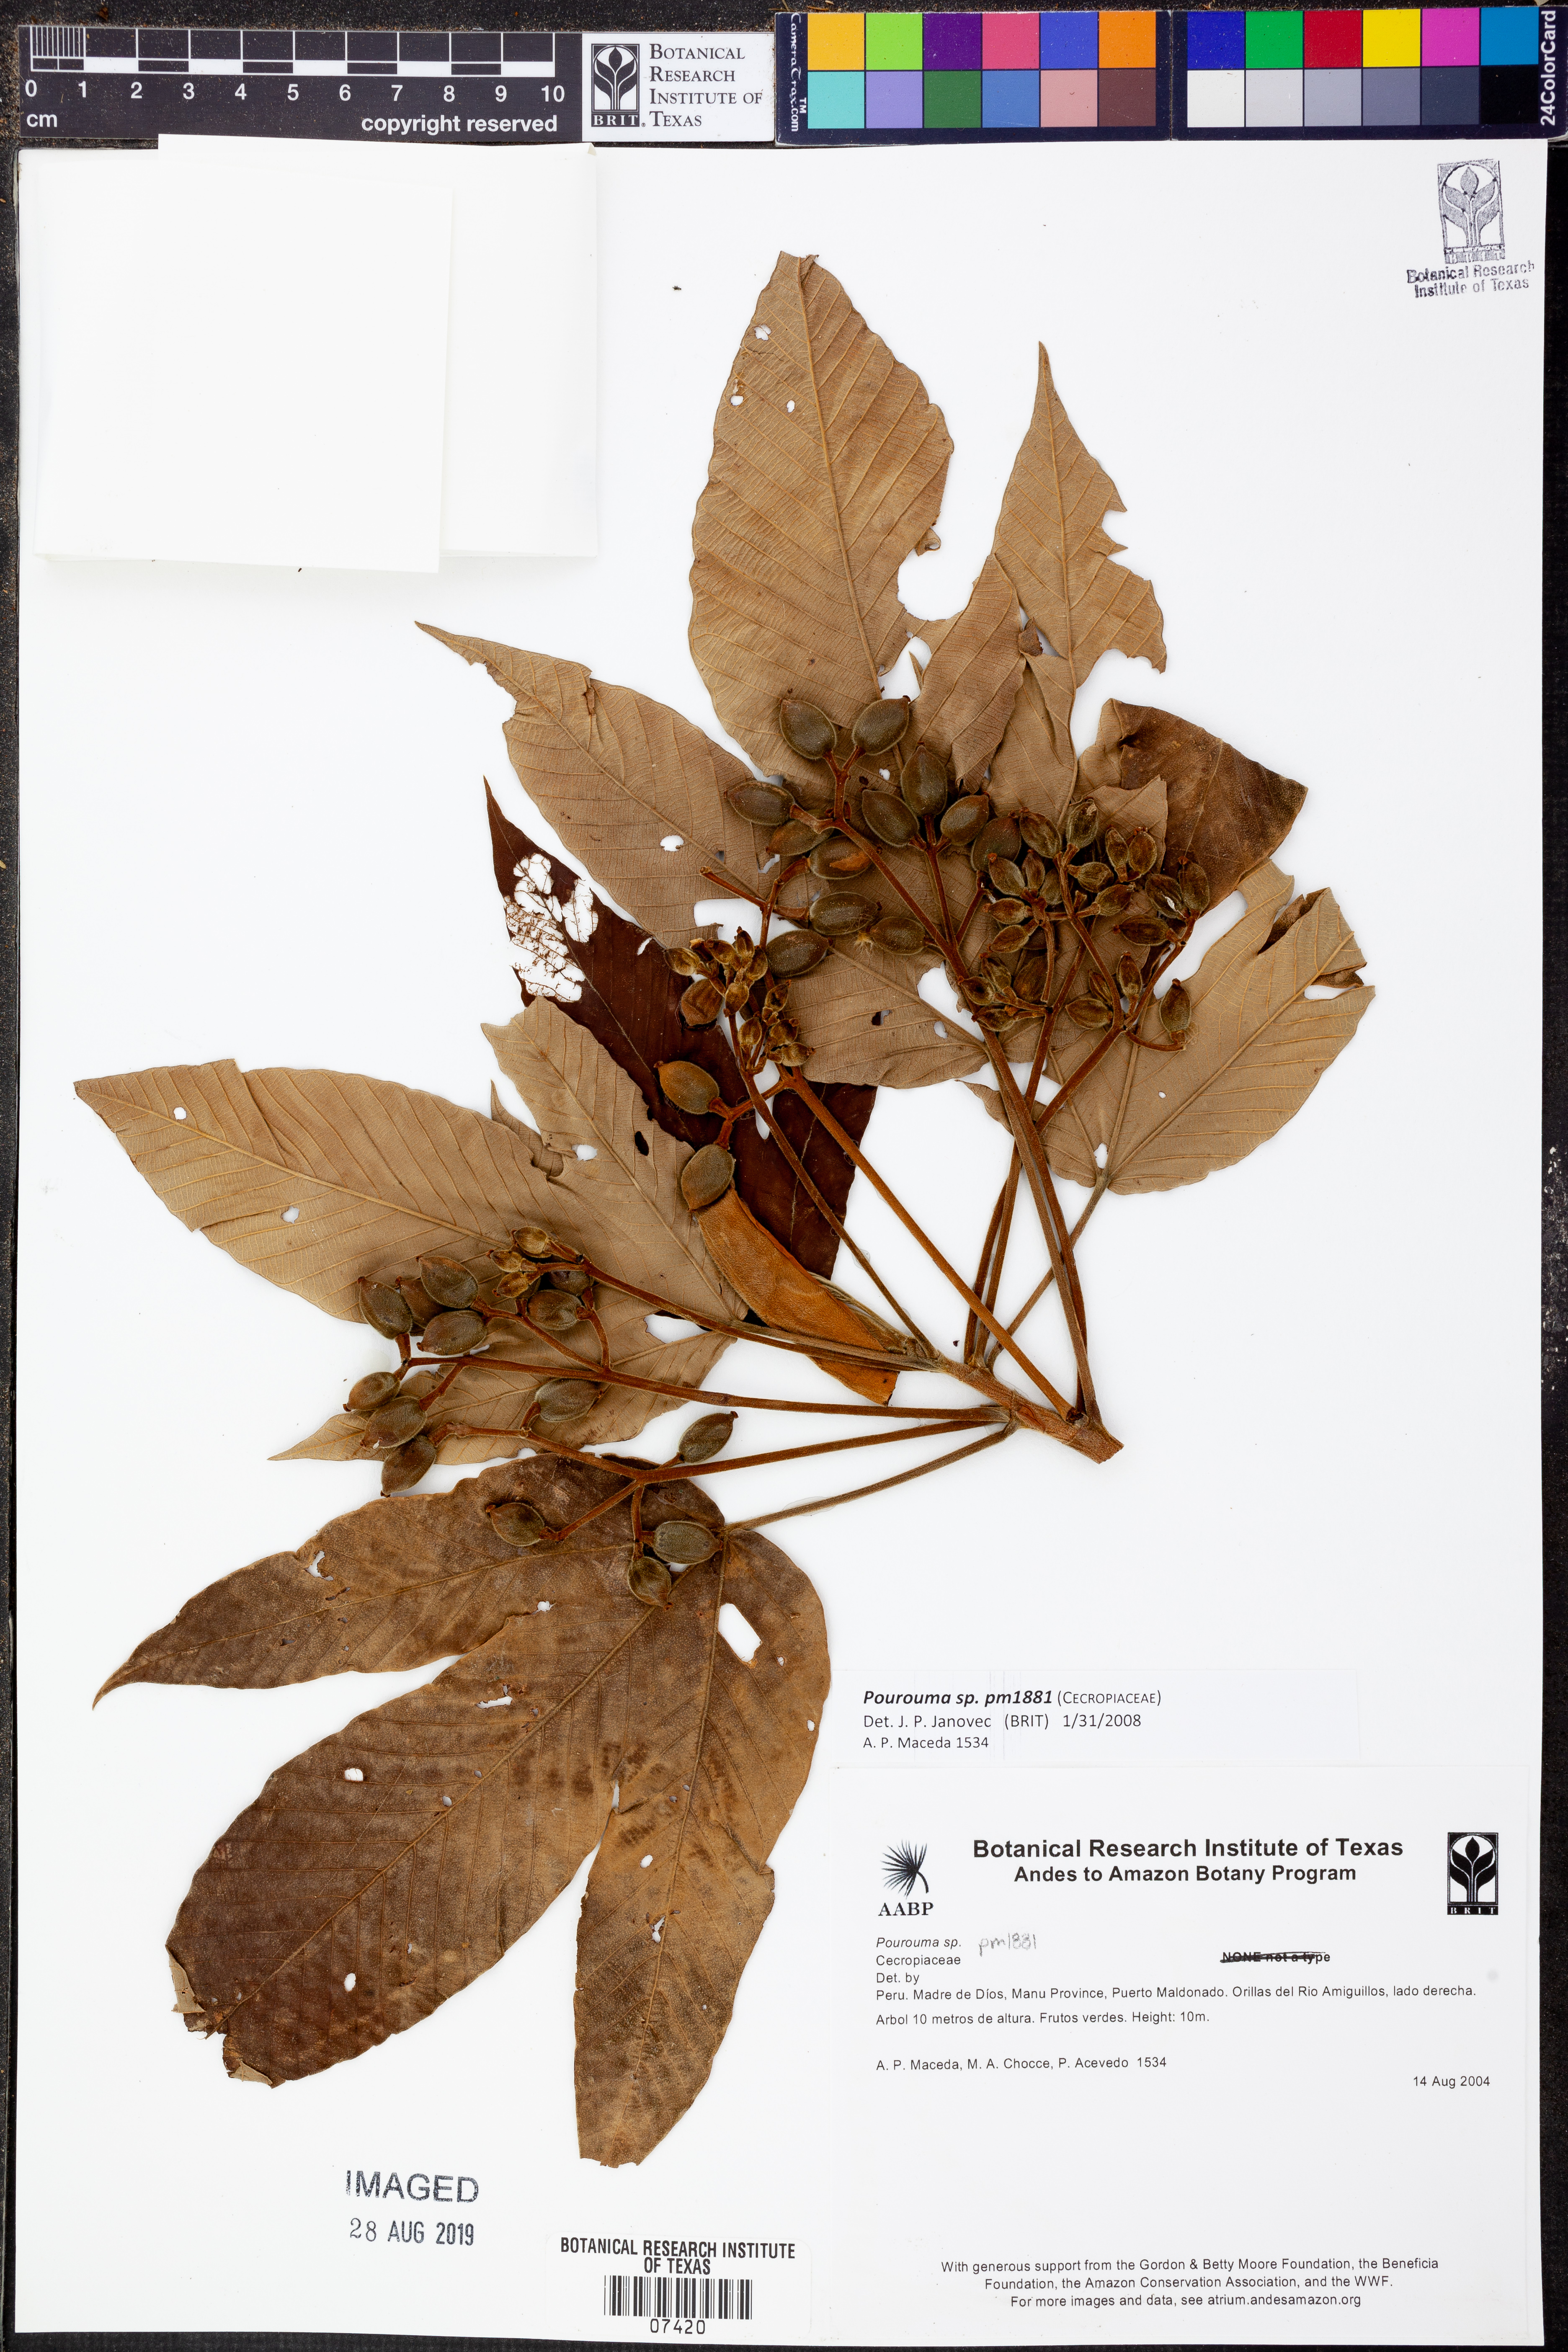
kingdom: Plantae
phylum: Tracheophyta
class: Magnoliopsida
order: Rosales
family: Urticaceae
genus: Pourouma
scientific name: Pourouma
